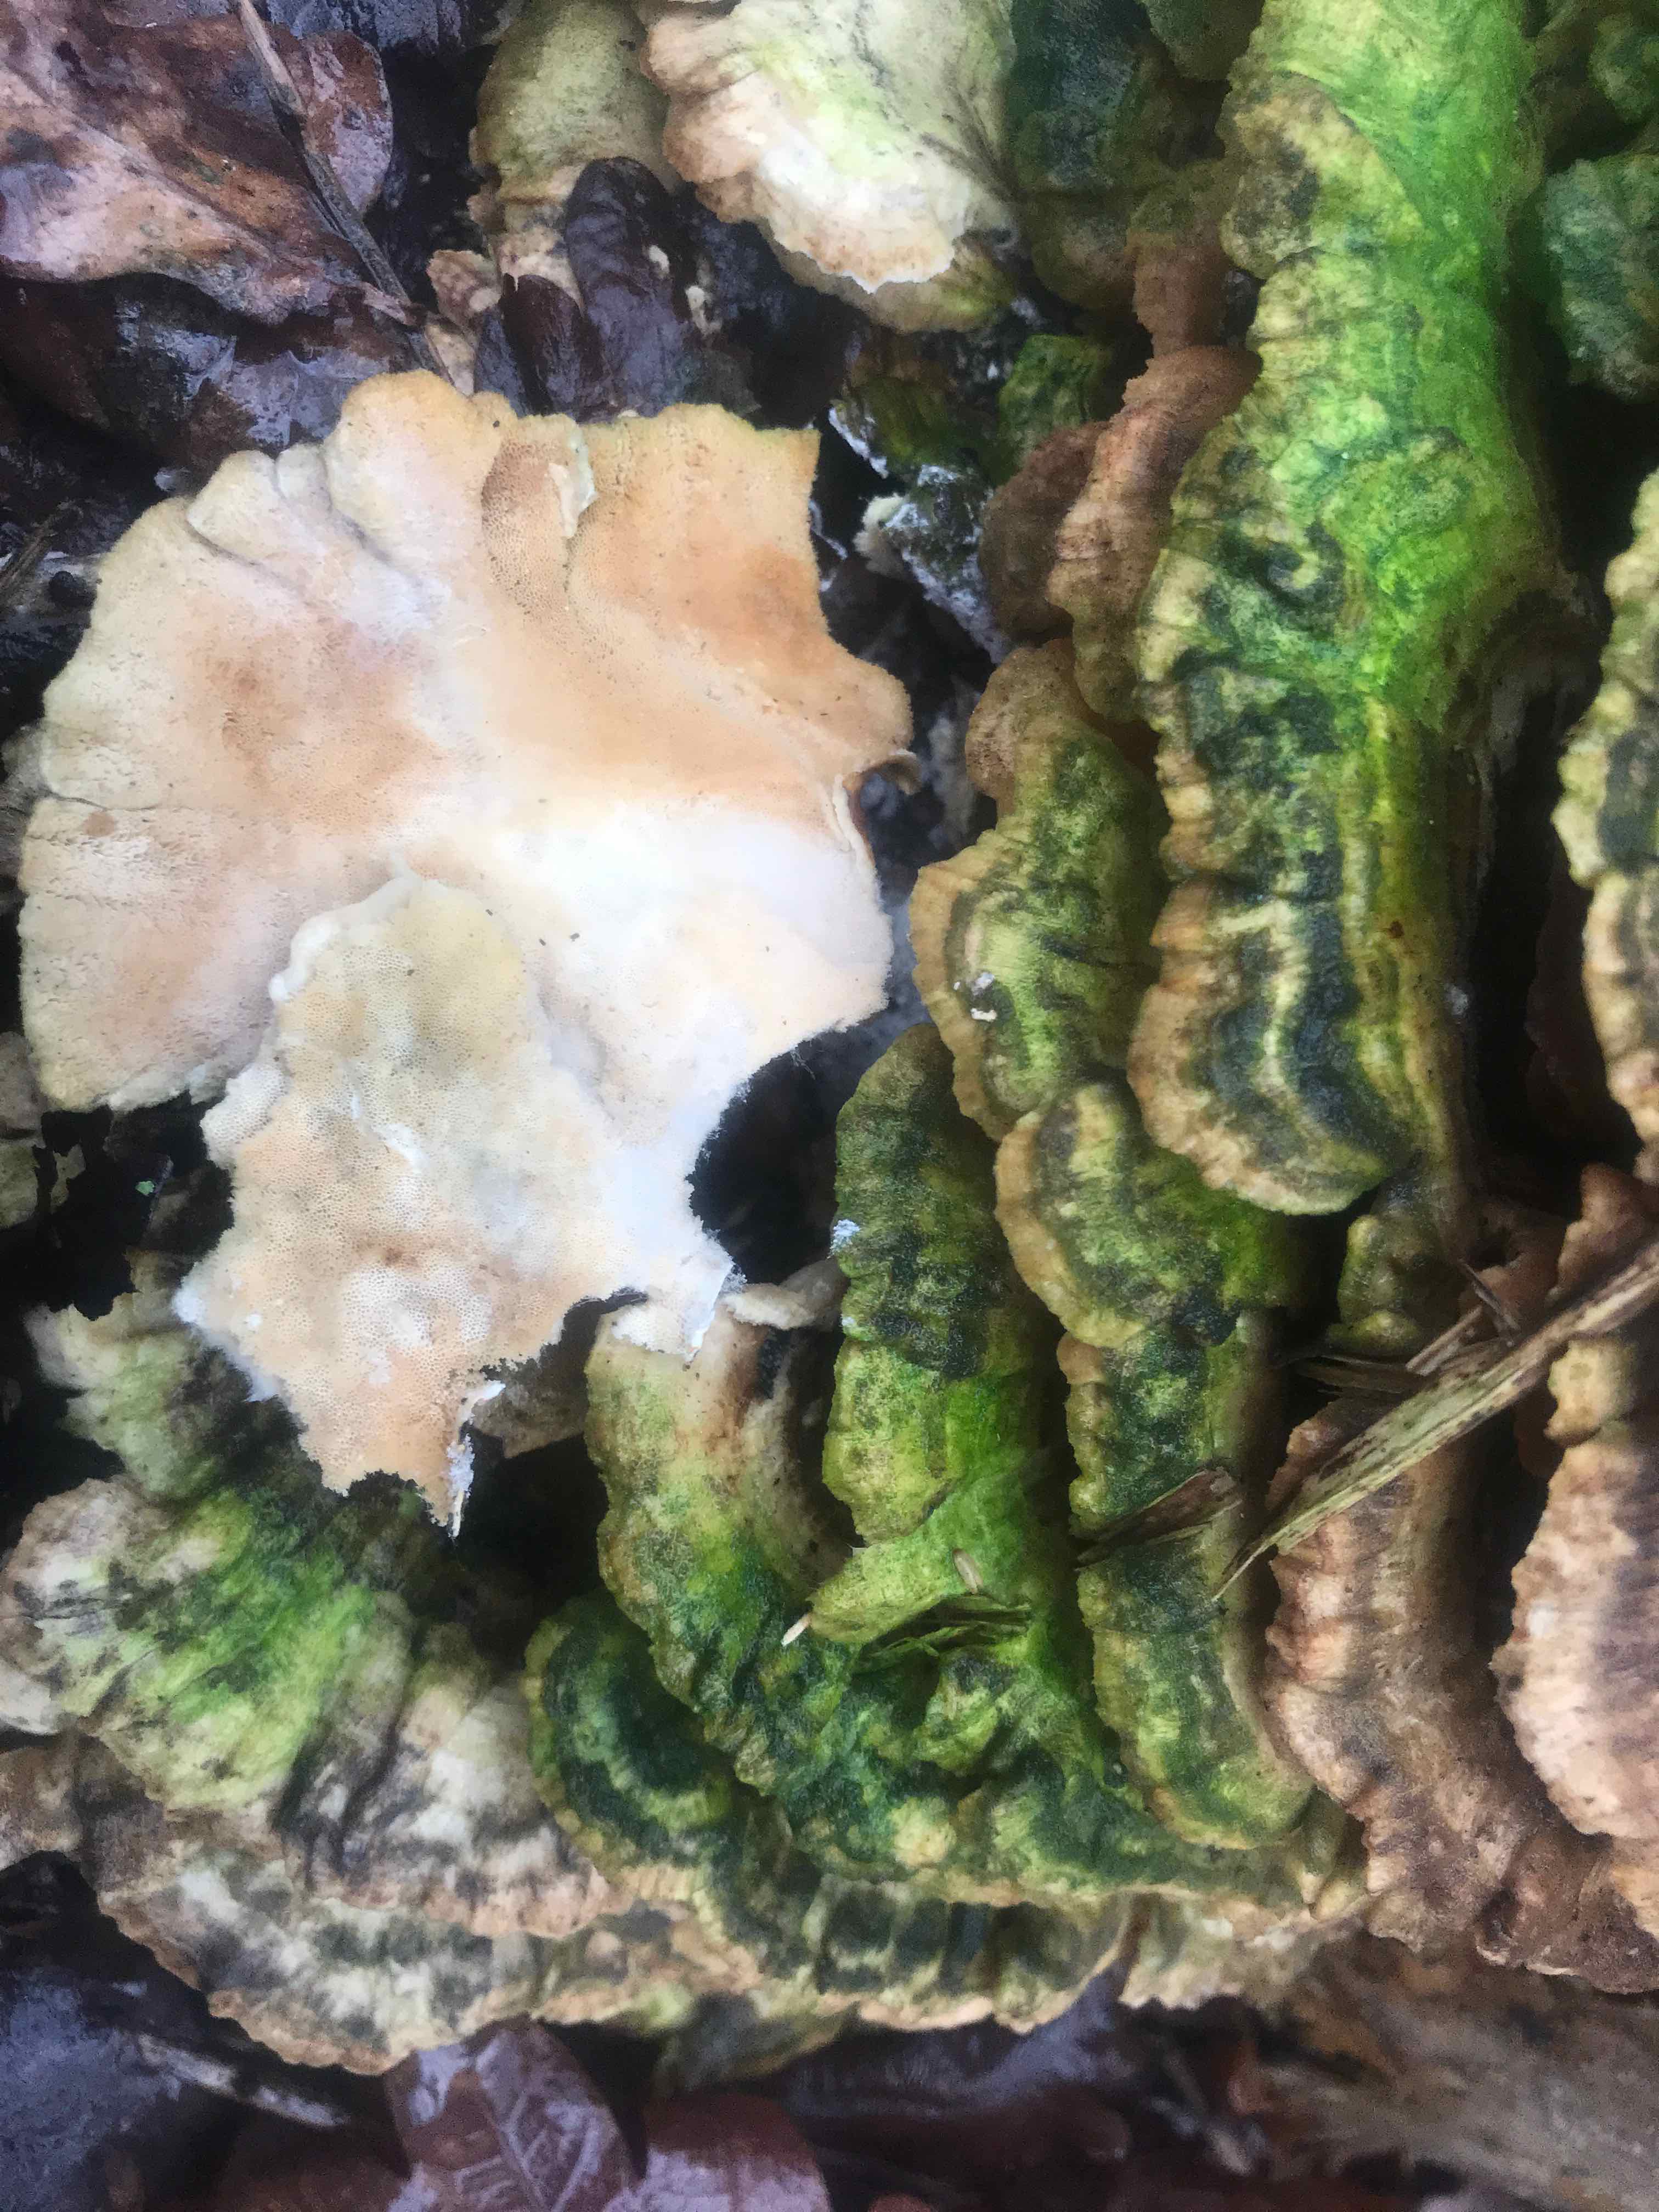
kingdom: Fungi
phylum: Basidiomycota
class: Agaricomycetes
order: Polyporales
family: Polyporaceae
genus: Trametes
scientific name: Trametes versicolor
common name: broget læderporesvamp
